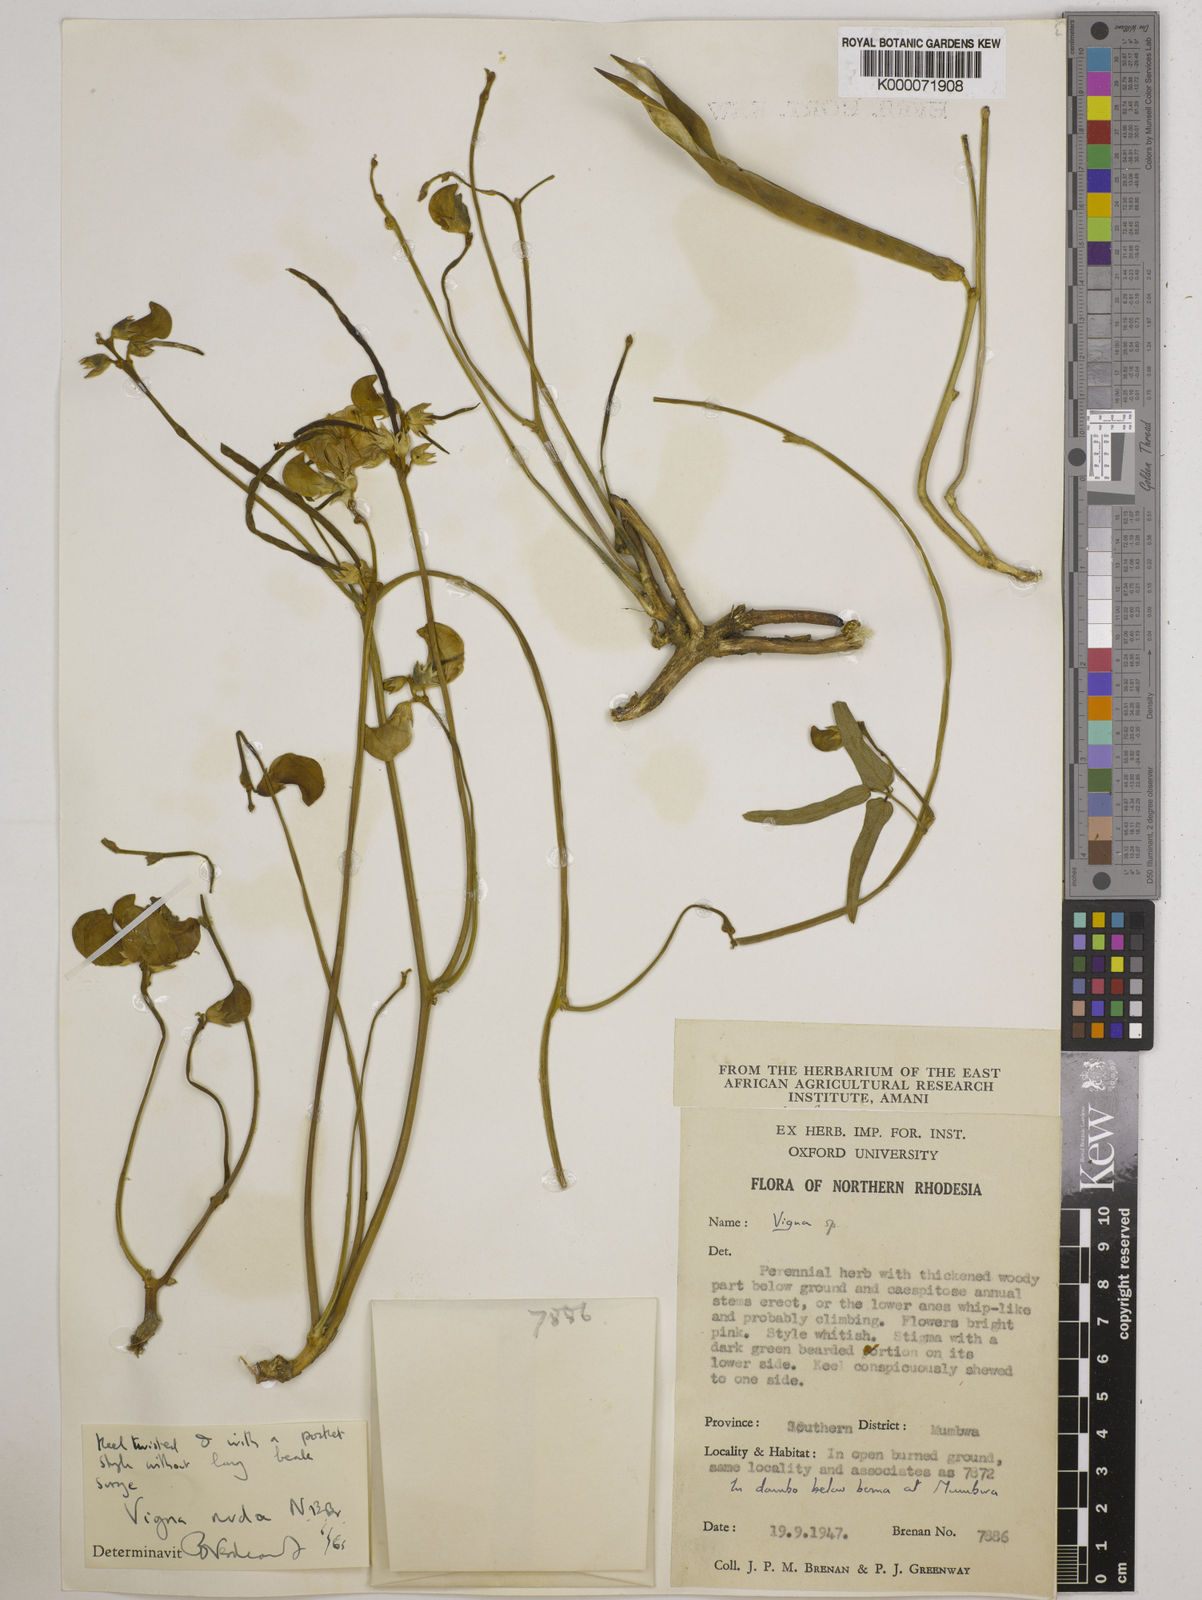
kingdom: Plantae
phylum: Tracheophyta
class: Magnoliopsida
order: Fabales
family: Fabaceae
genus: Vigna
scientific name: Vigna antunesii
